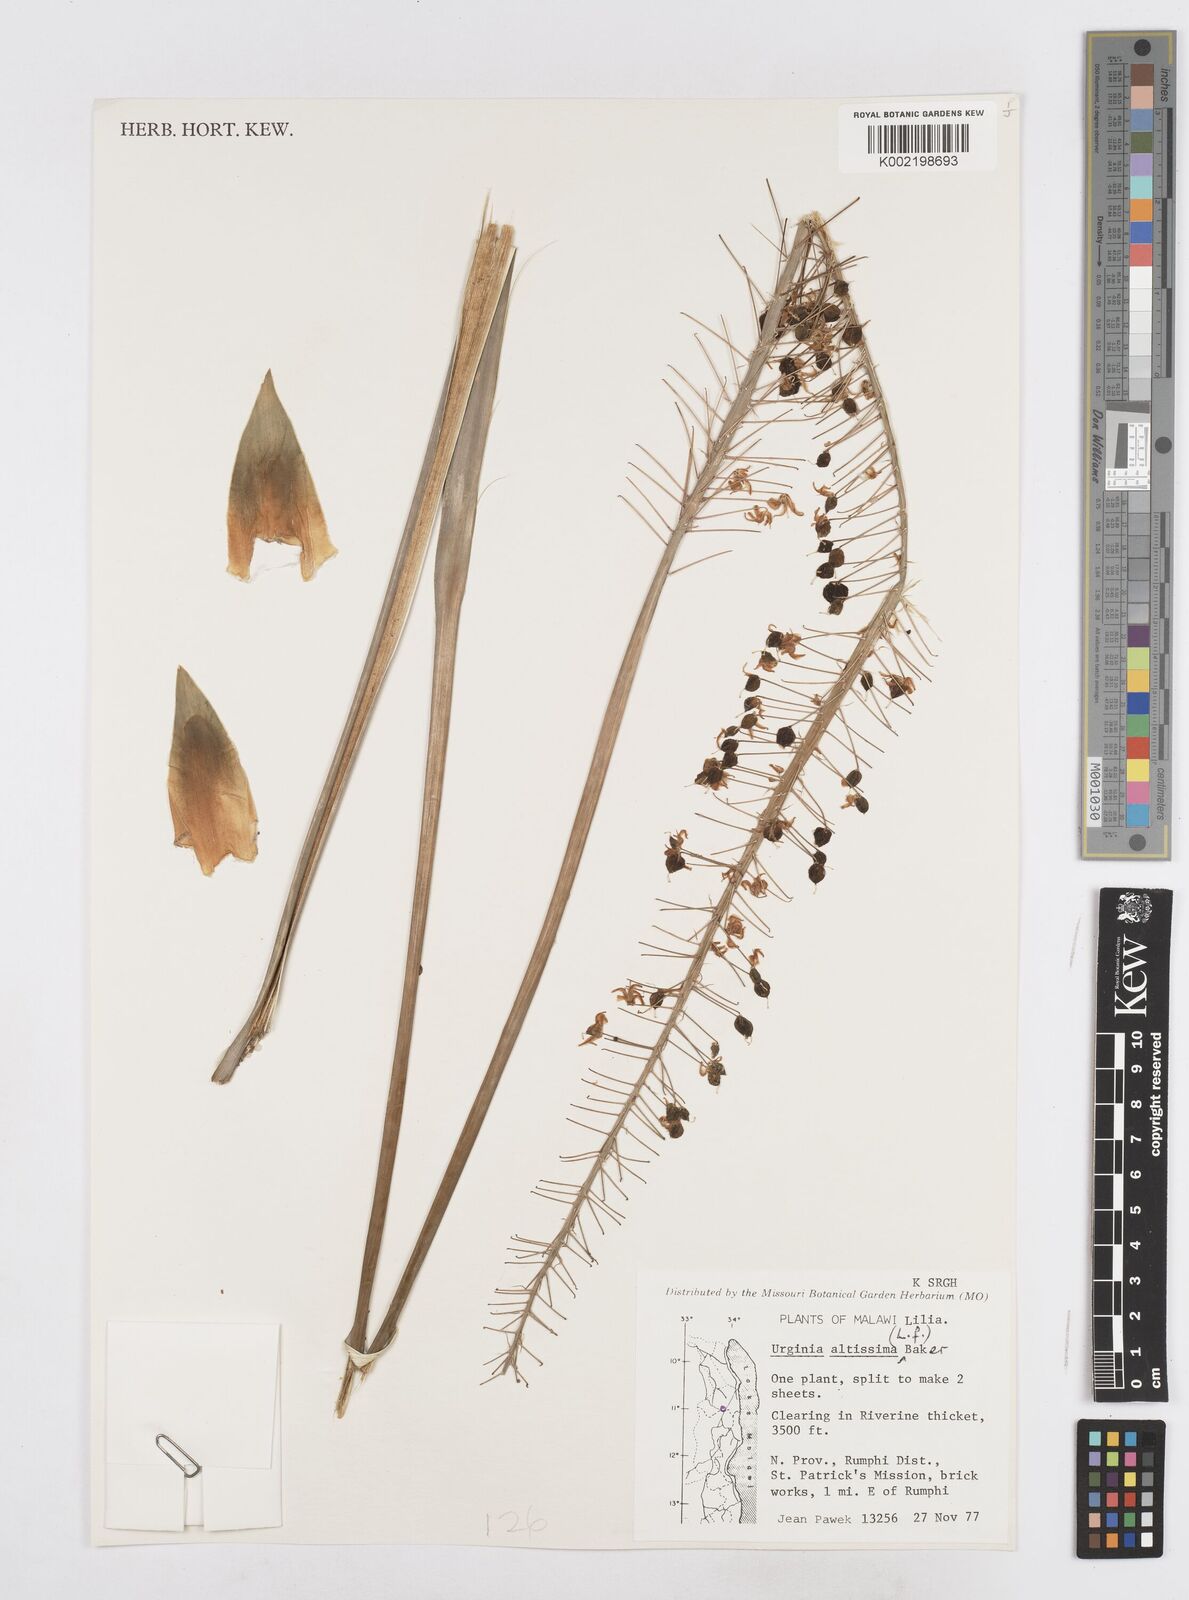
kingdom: Plantae
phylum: Tracheophyta
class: Liliopsida
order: Asparagales
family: Asparagaceae
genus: Drimia
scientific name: Drimia
